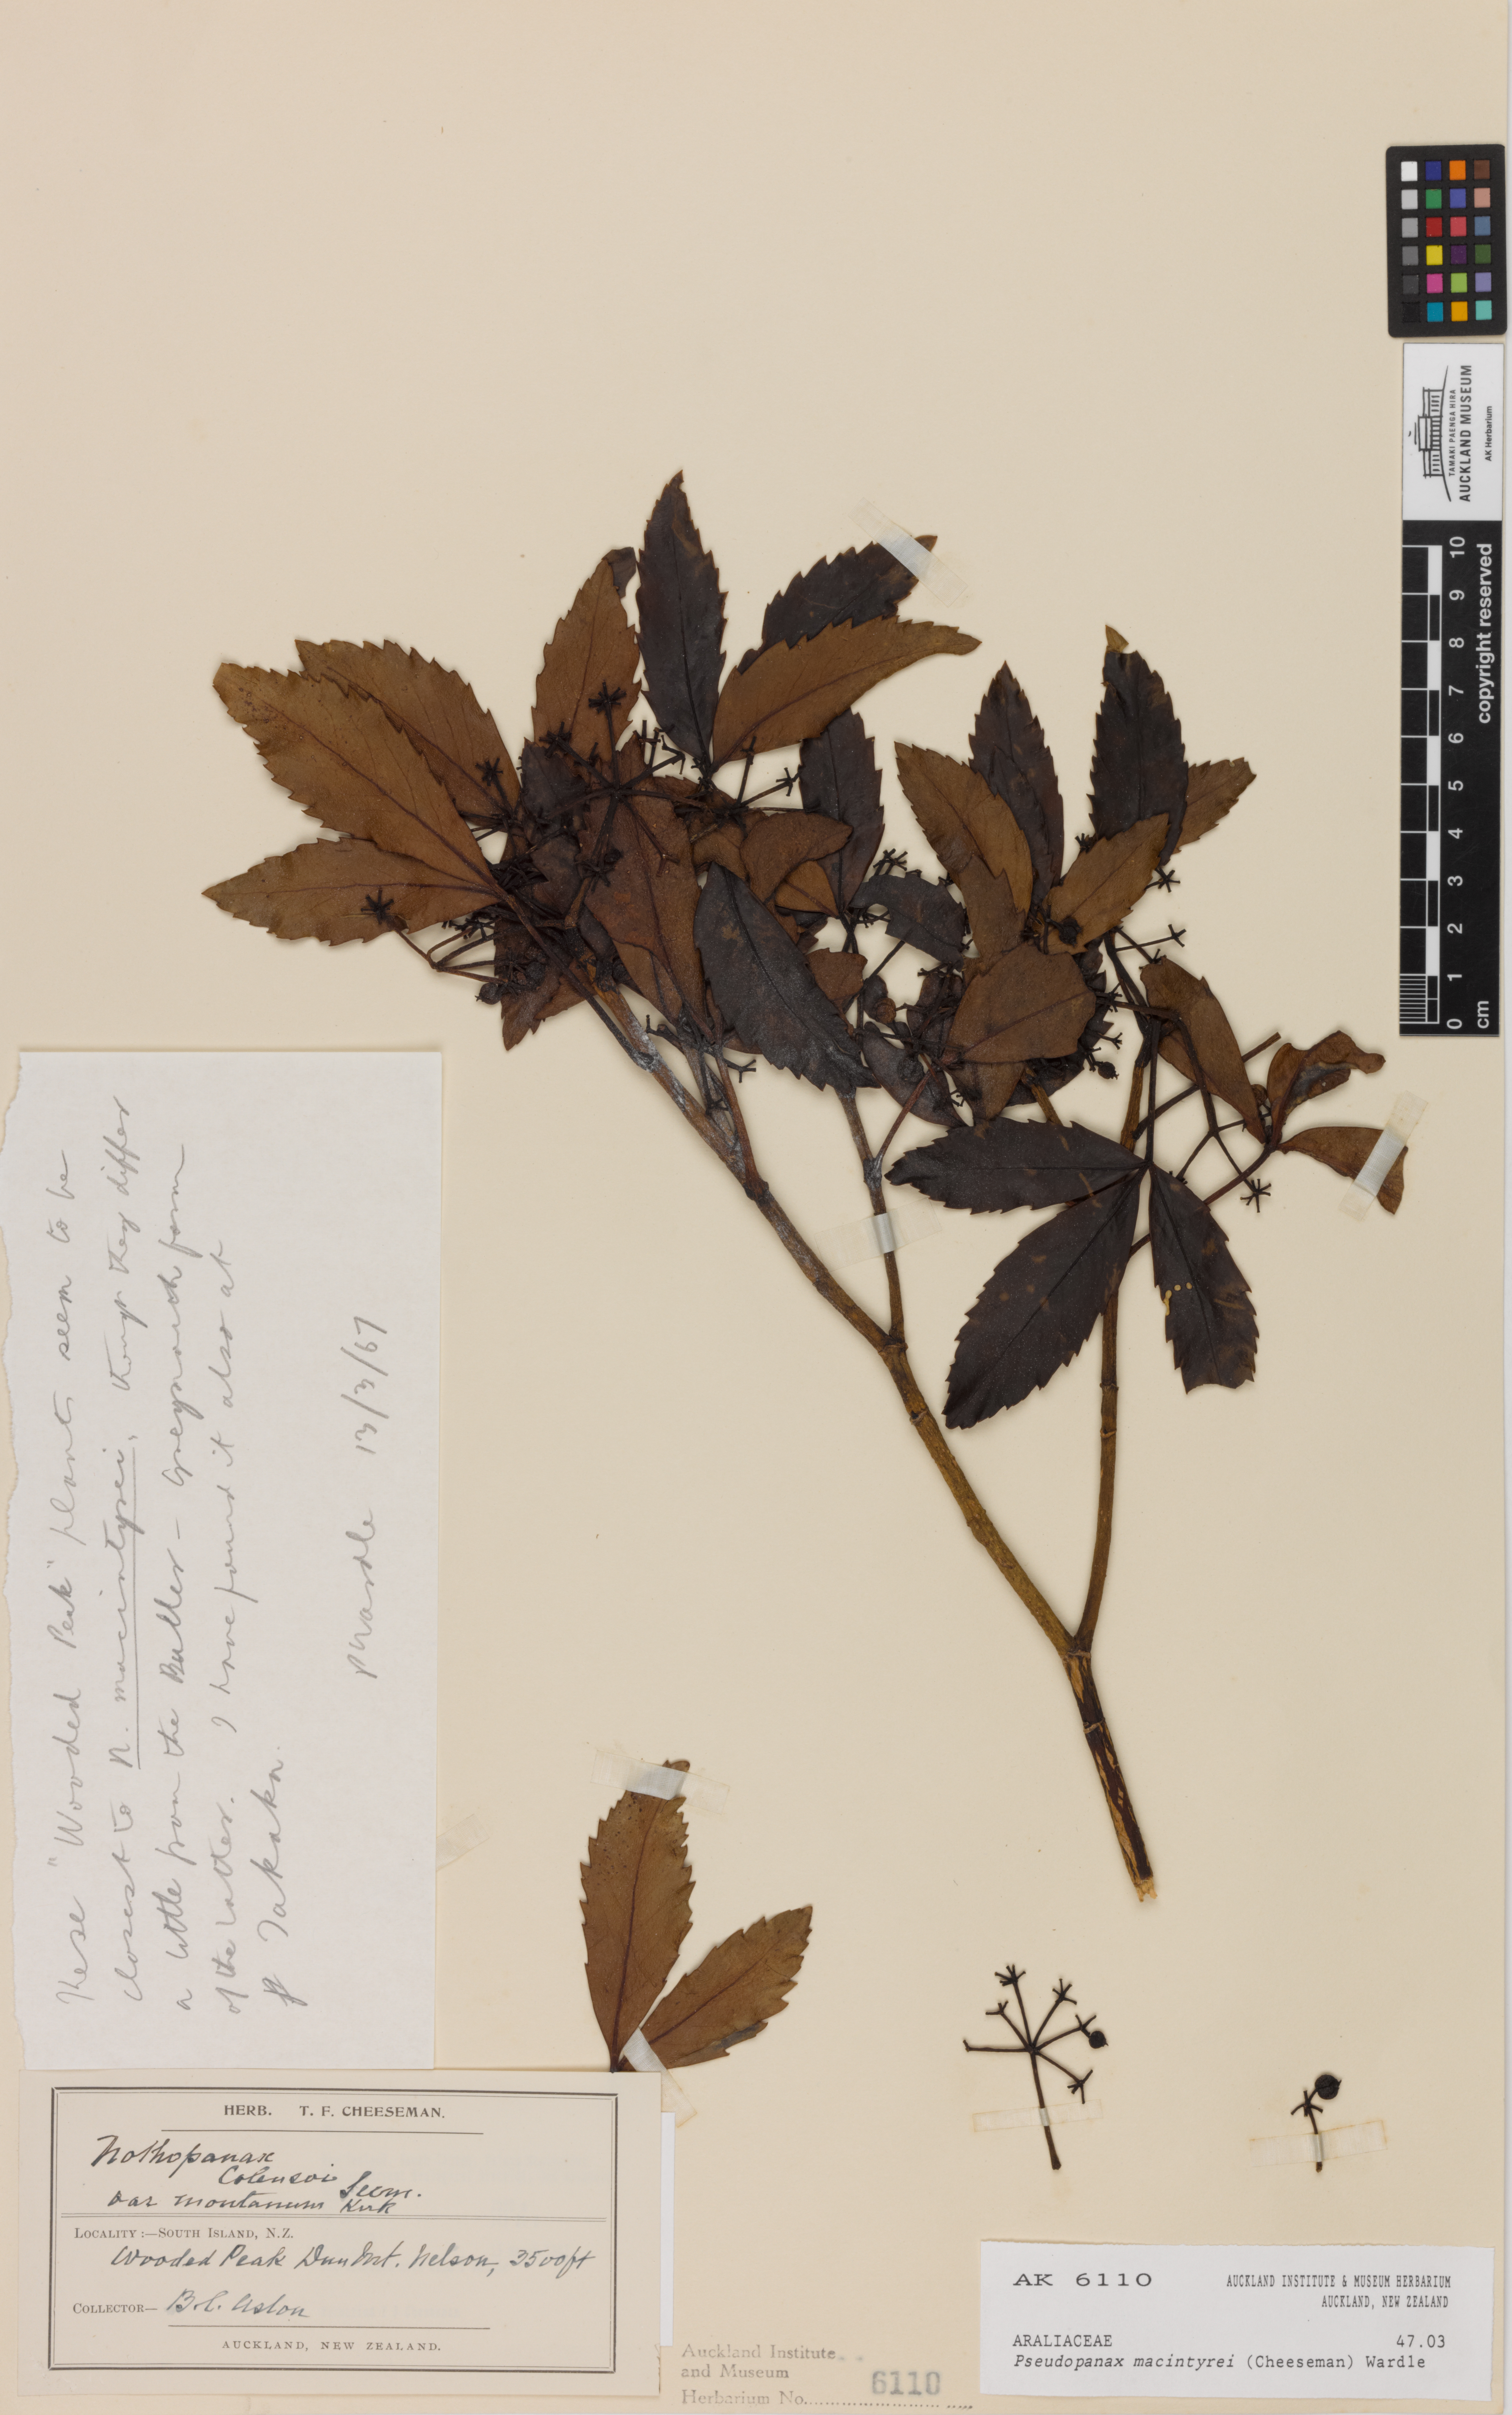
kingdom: Plantae
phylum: Tracheophyta
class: Magnoliopsida
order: Apiales
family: Araliaceae
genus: Neopanax
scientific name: Neopanax macintyrei
